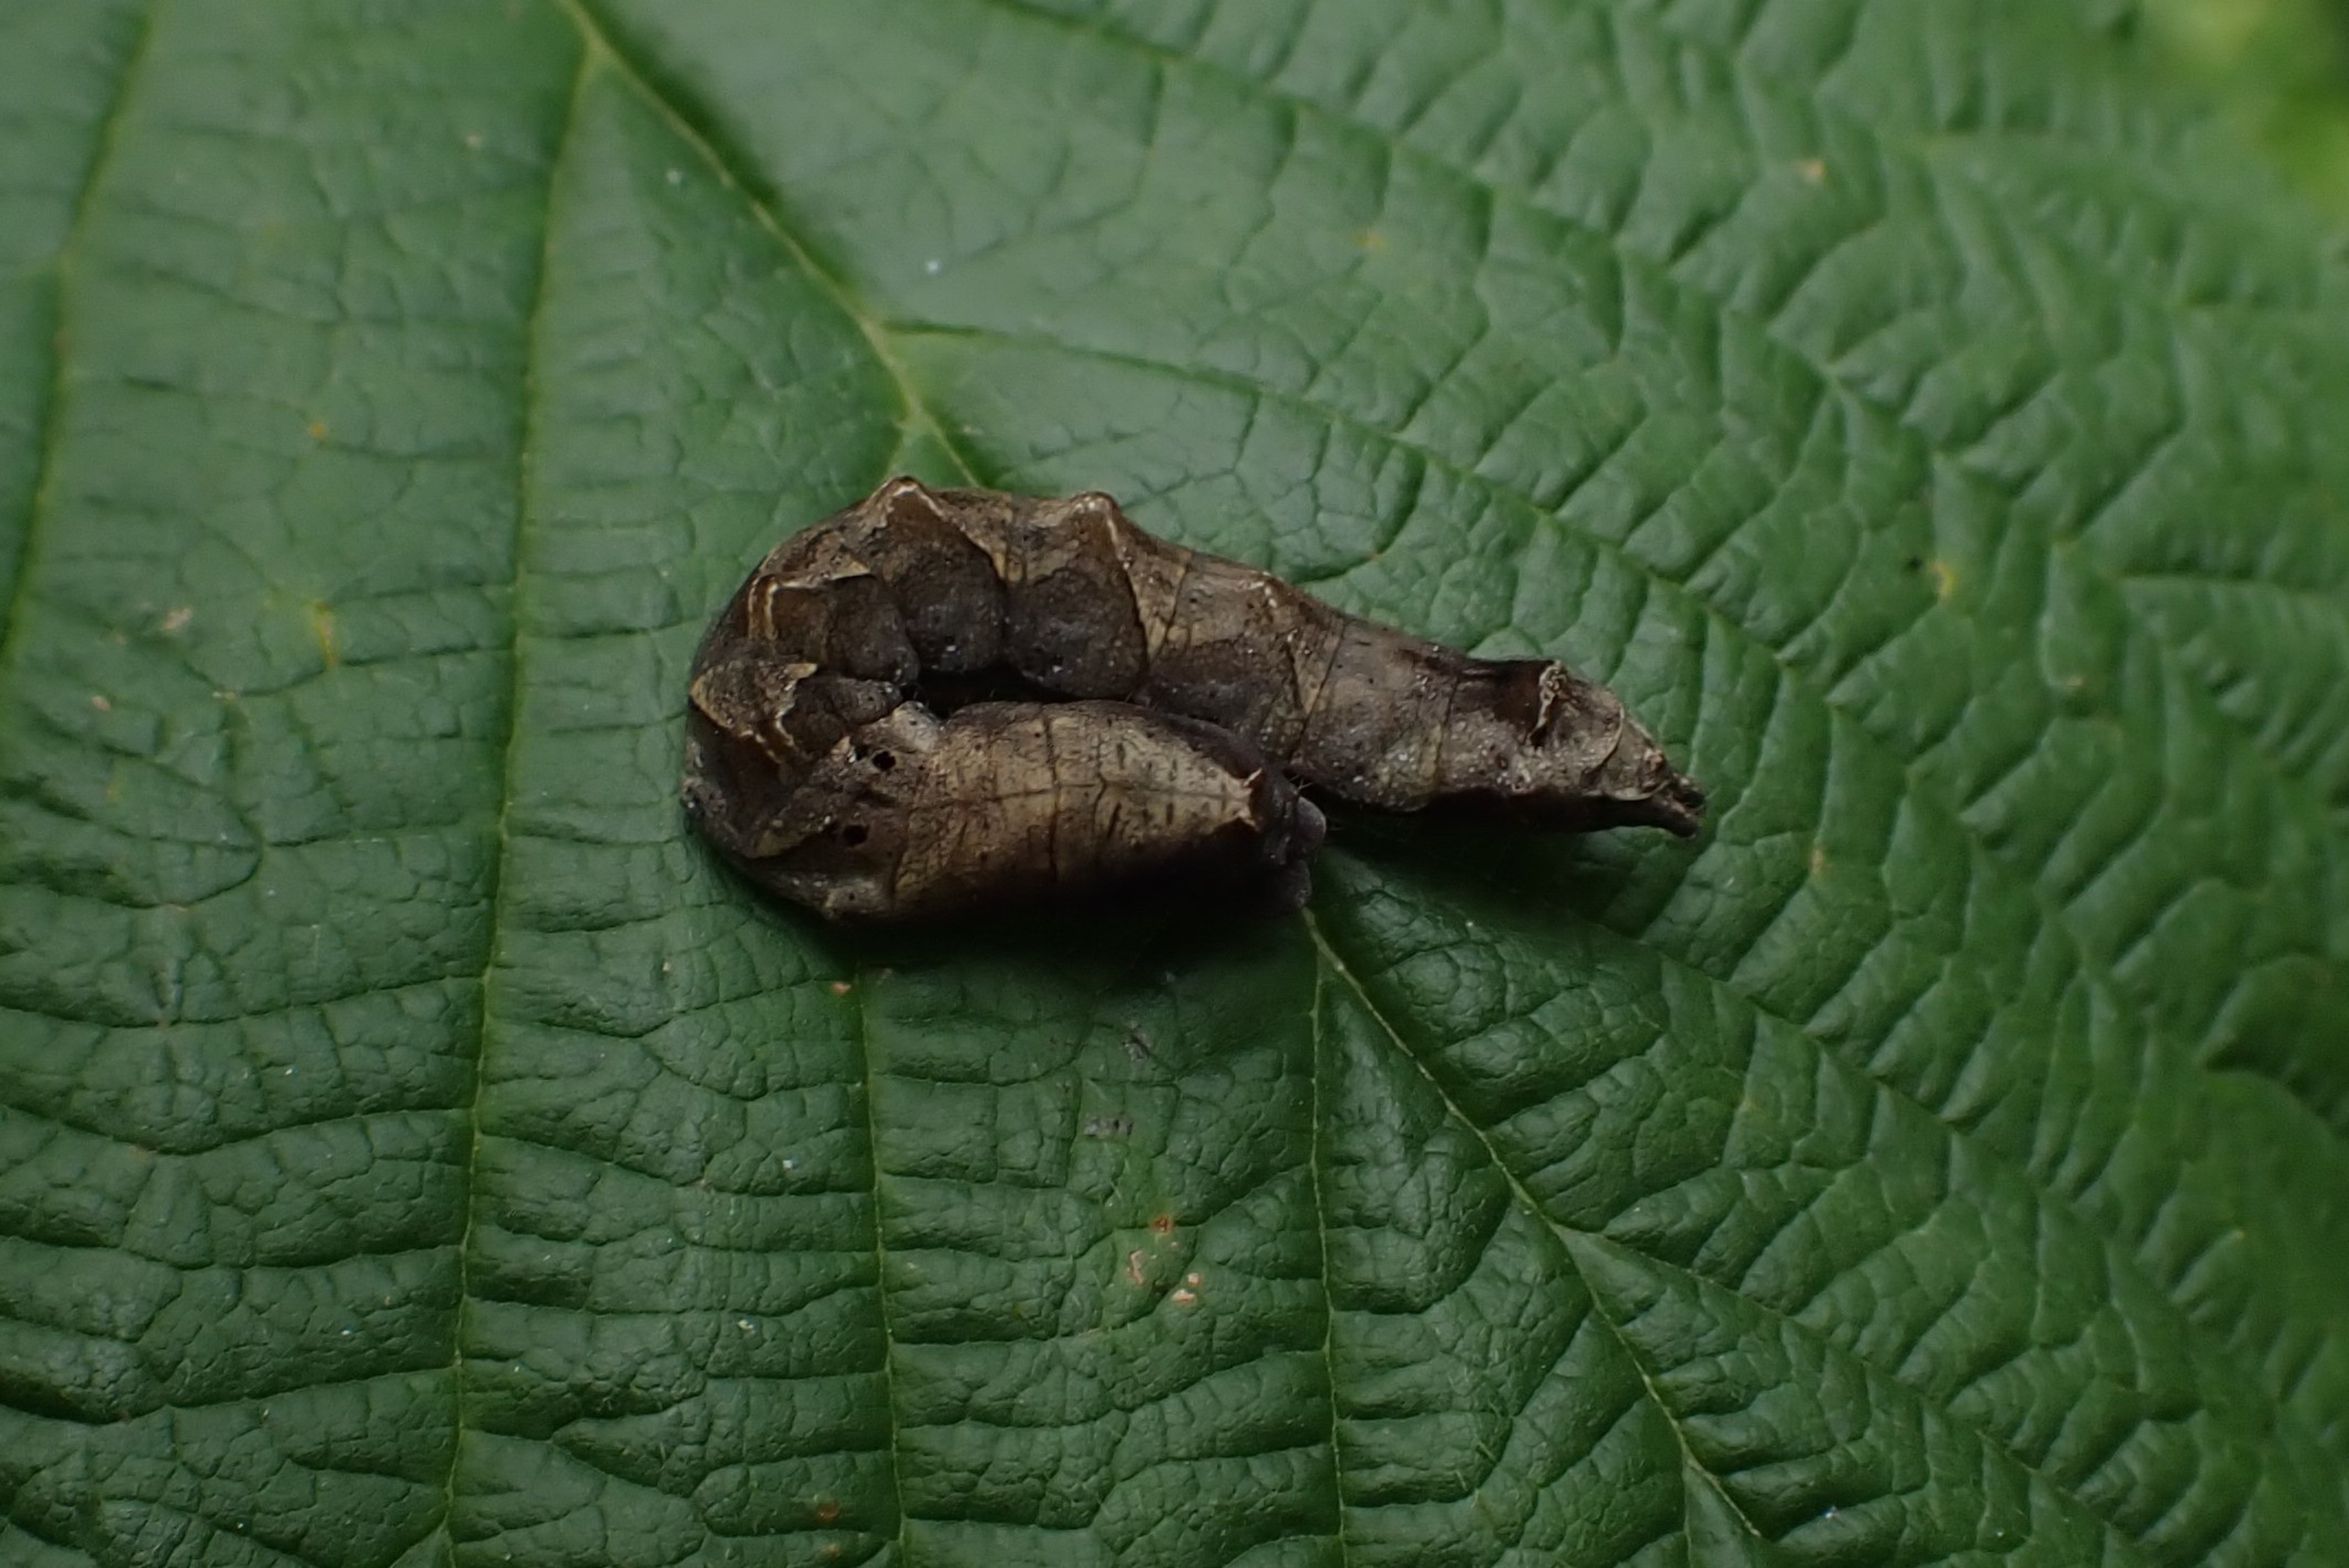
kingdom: Animalia
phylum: Arthropoda
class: Insecta
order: Lepidoptera
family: Drepanidae
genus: Thyatira
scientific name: Thyatira batis
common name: Rosenplet
